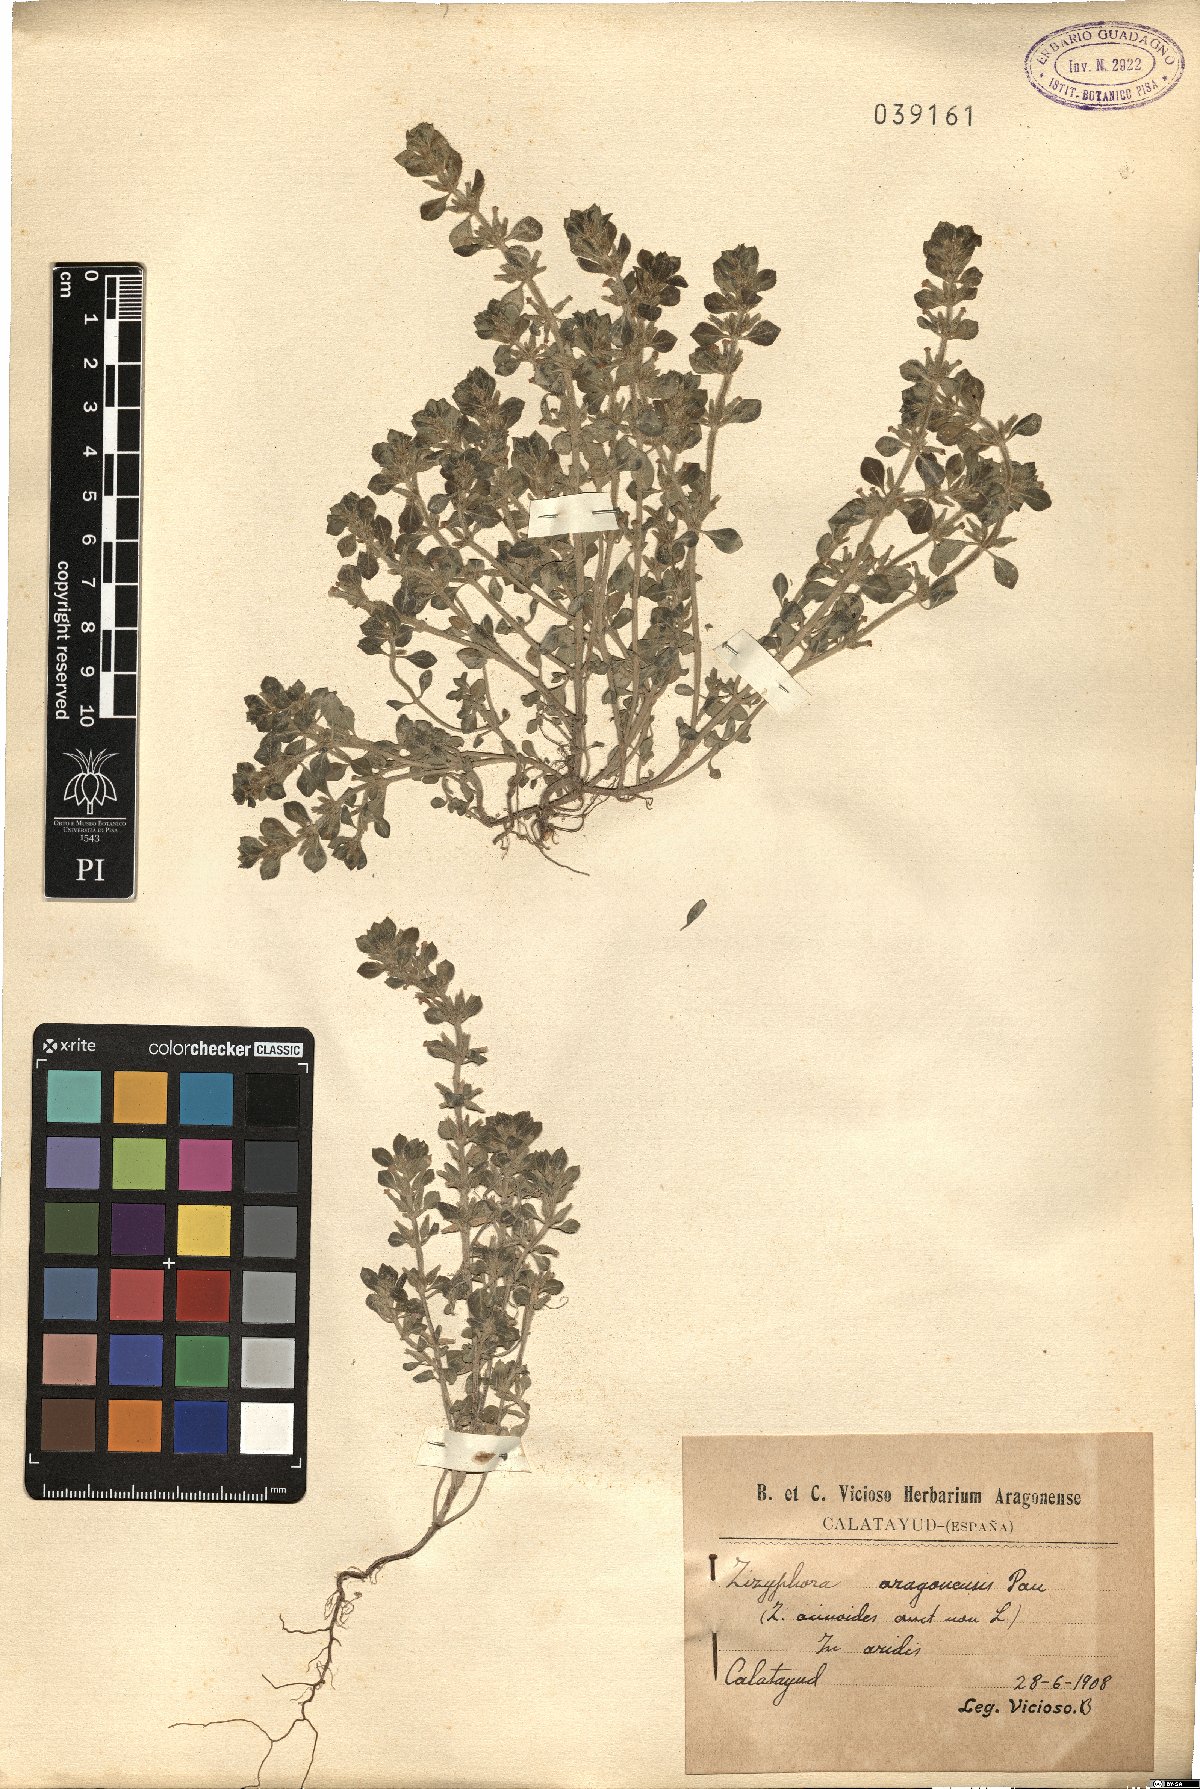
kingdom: Plantae
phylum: Tracheophyta
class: Magnoliopsida
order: Lamiales
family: Lamiaceae
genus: Ziziphora
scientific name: Ziziphora aragonensis
